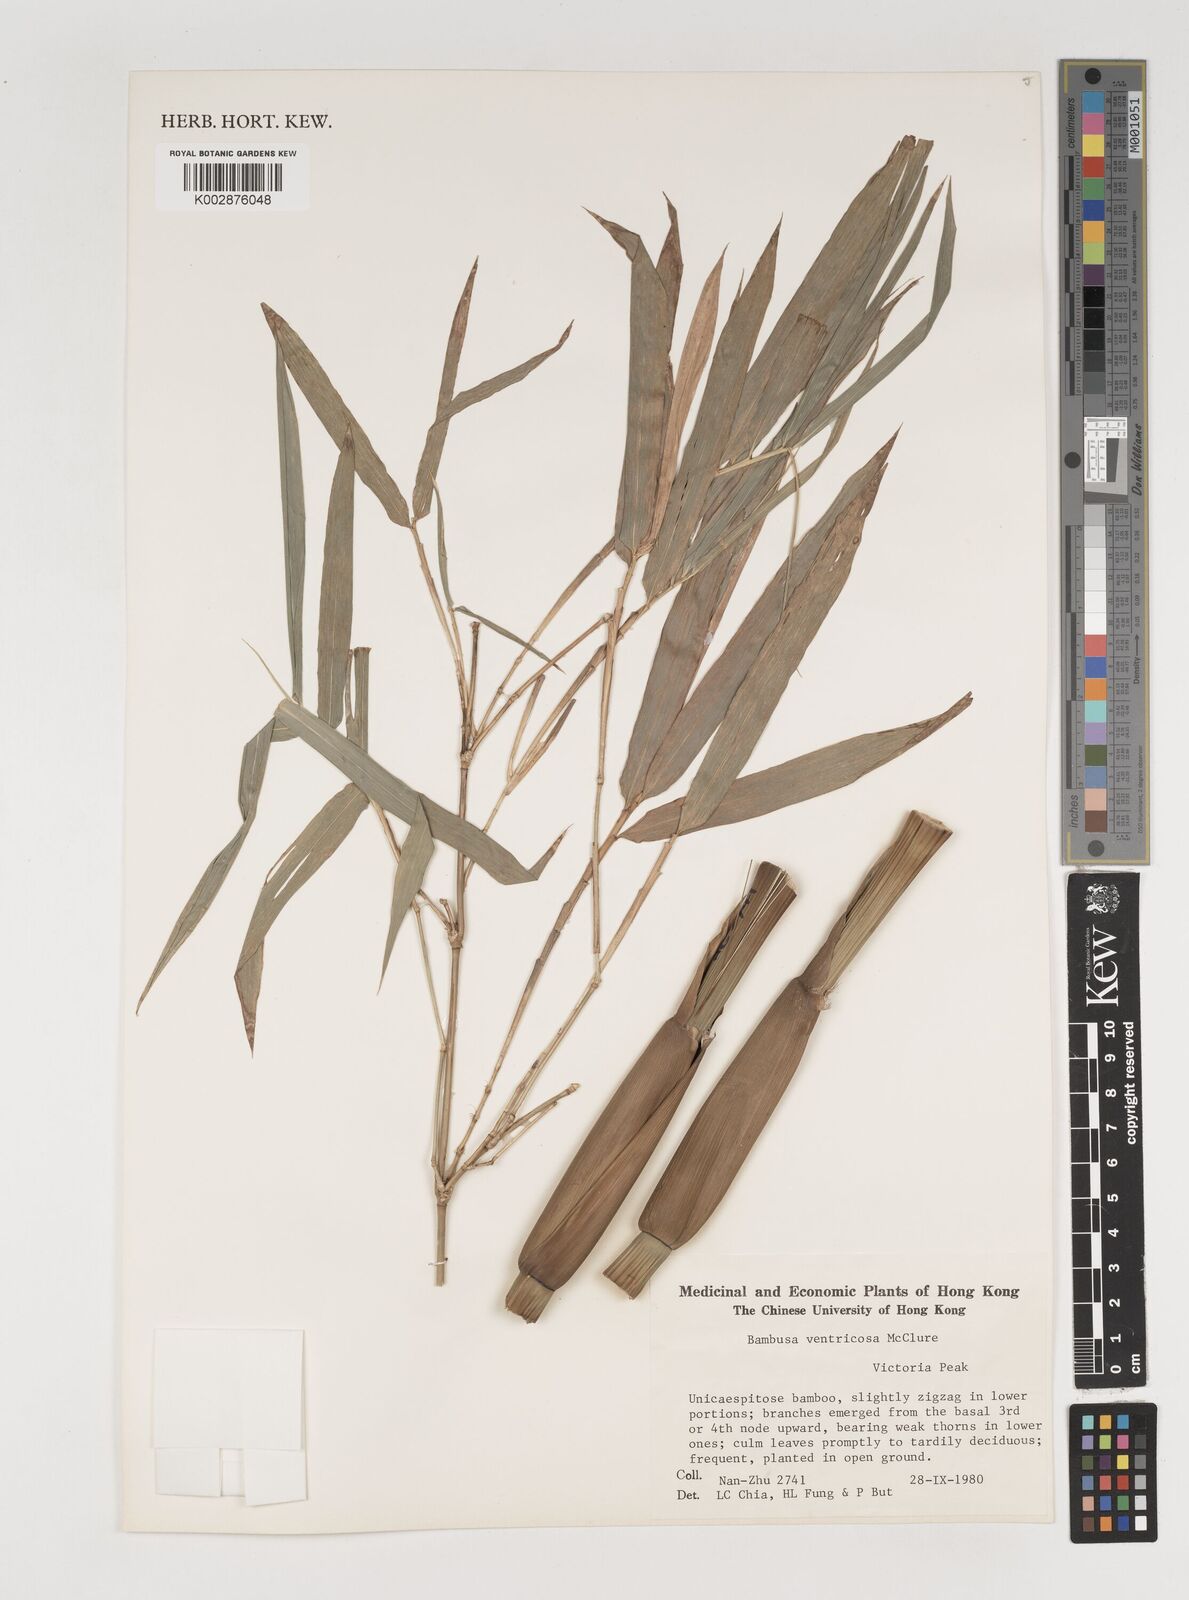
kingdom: Plantae
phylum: Tracheophyta
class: Liliopsida
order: Poales
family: Poaceae
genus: Bambusa
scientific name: Bambusa ventricosa
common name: Buddha bamboo
